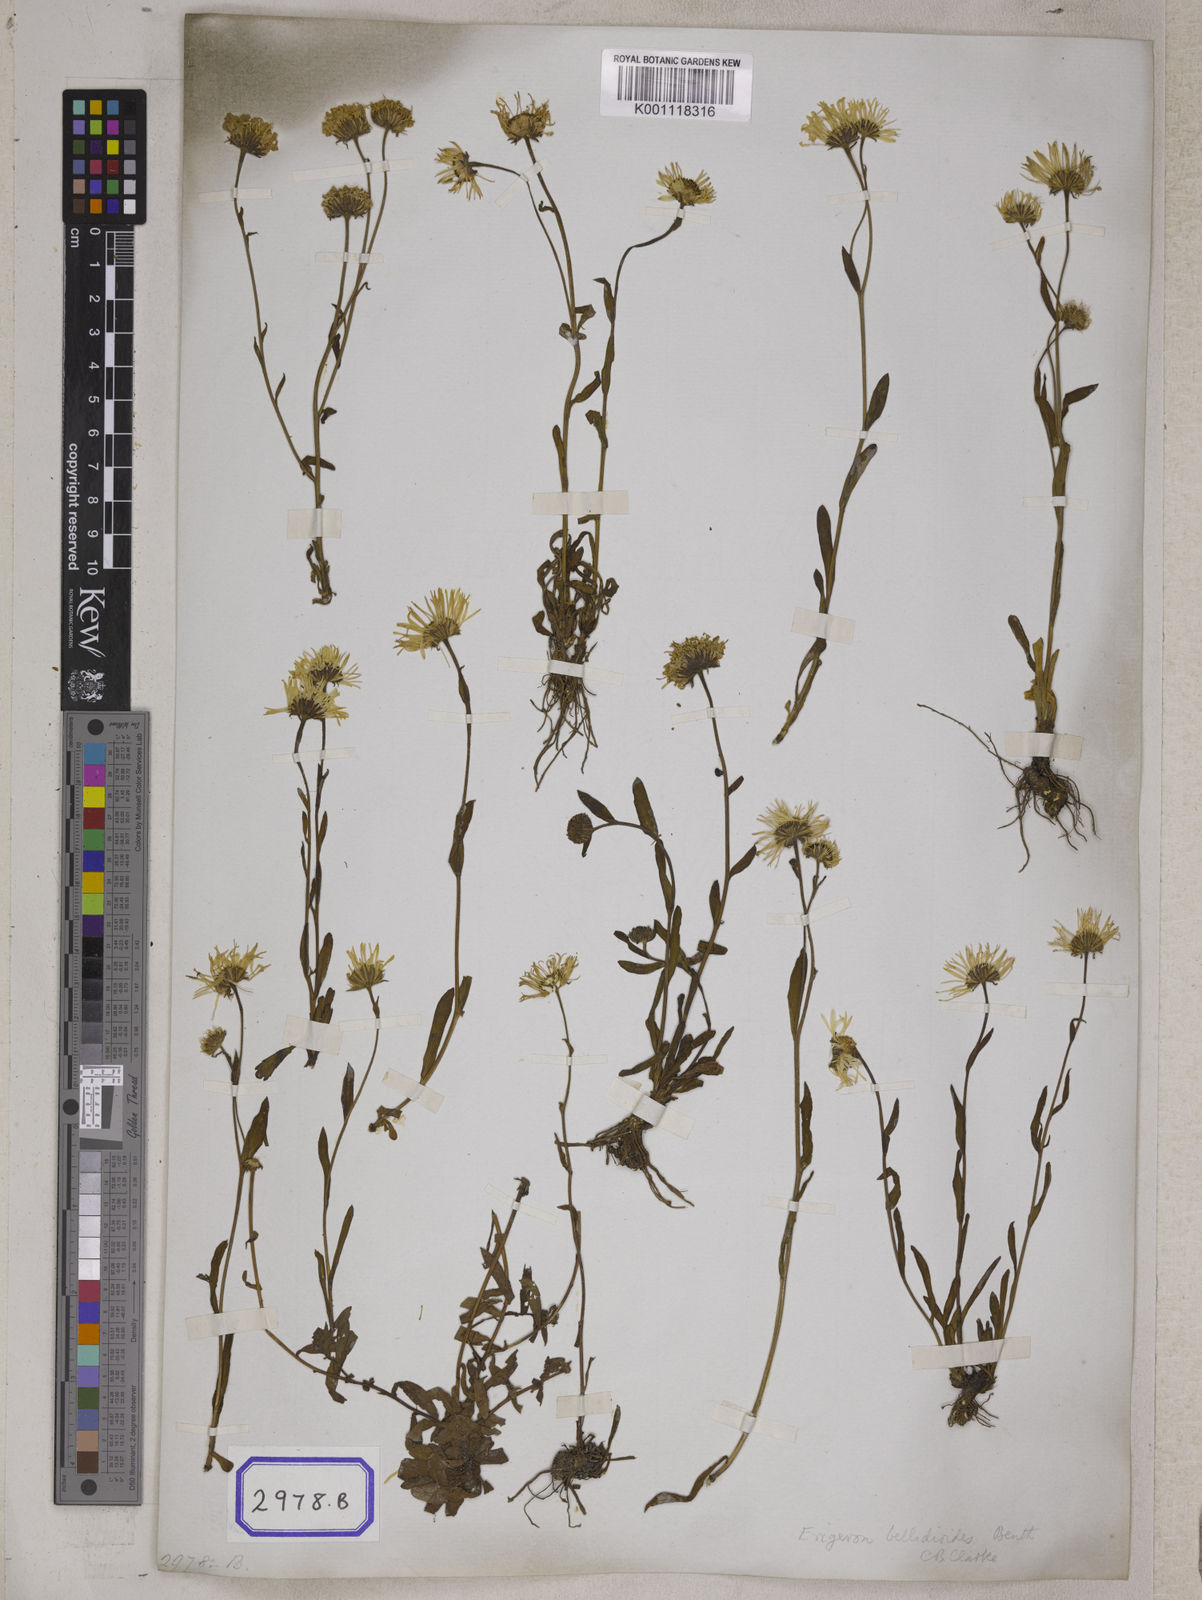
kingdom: Plantae
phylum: Tracheophyta
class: Magnoliopsida
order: Asterales
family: Asteraceae
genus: Aster
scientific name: Aster
